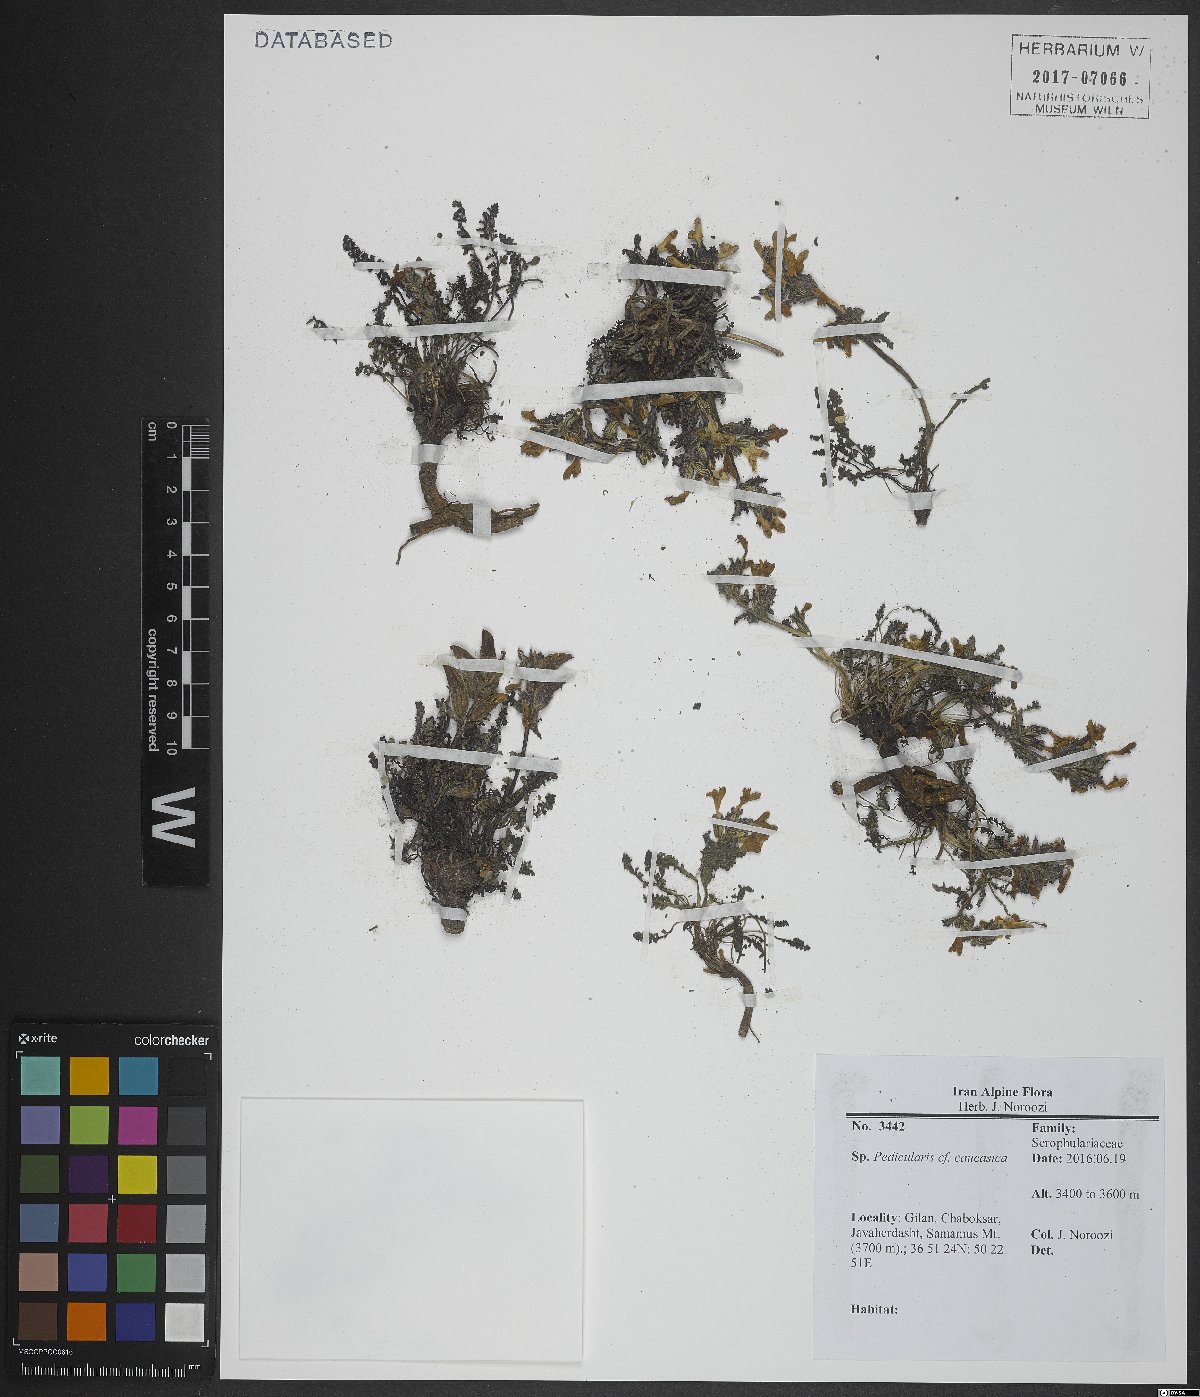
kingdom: Plantae
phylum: Tracheophyta
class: Magnoliopsida
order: Lamiales
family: Orobanchaceae
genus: Pedicularis
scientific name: Pedicularis caucasica
